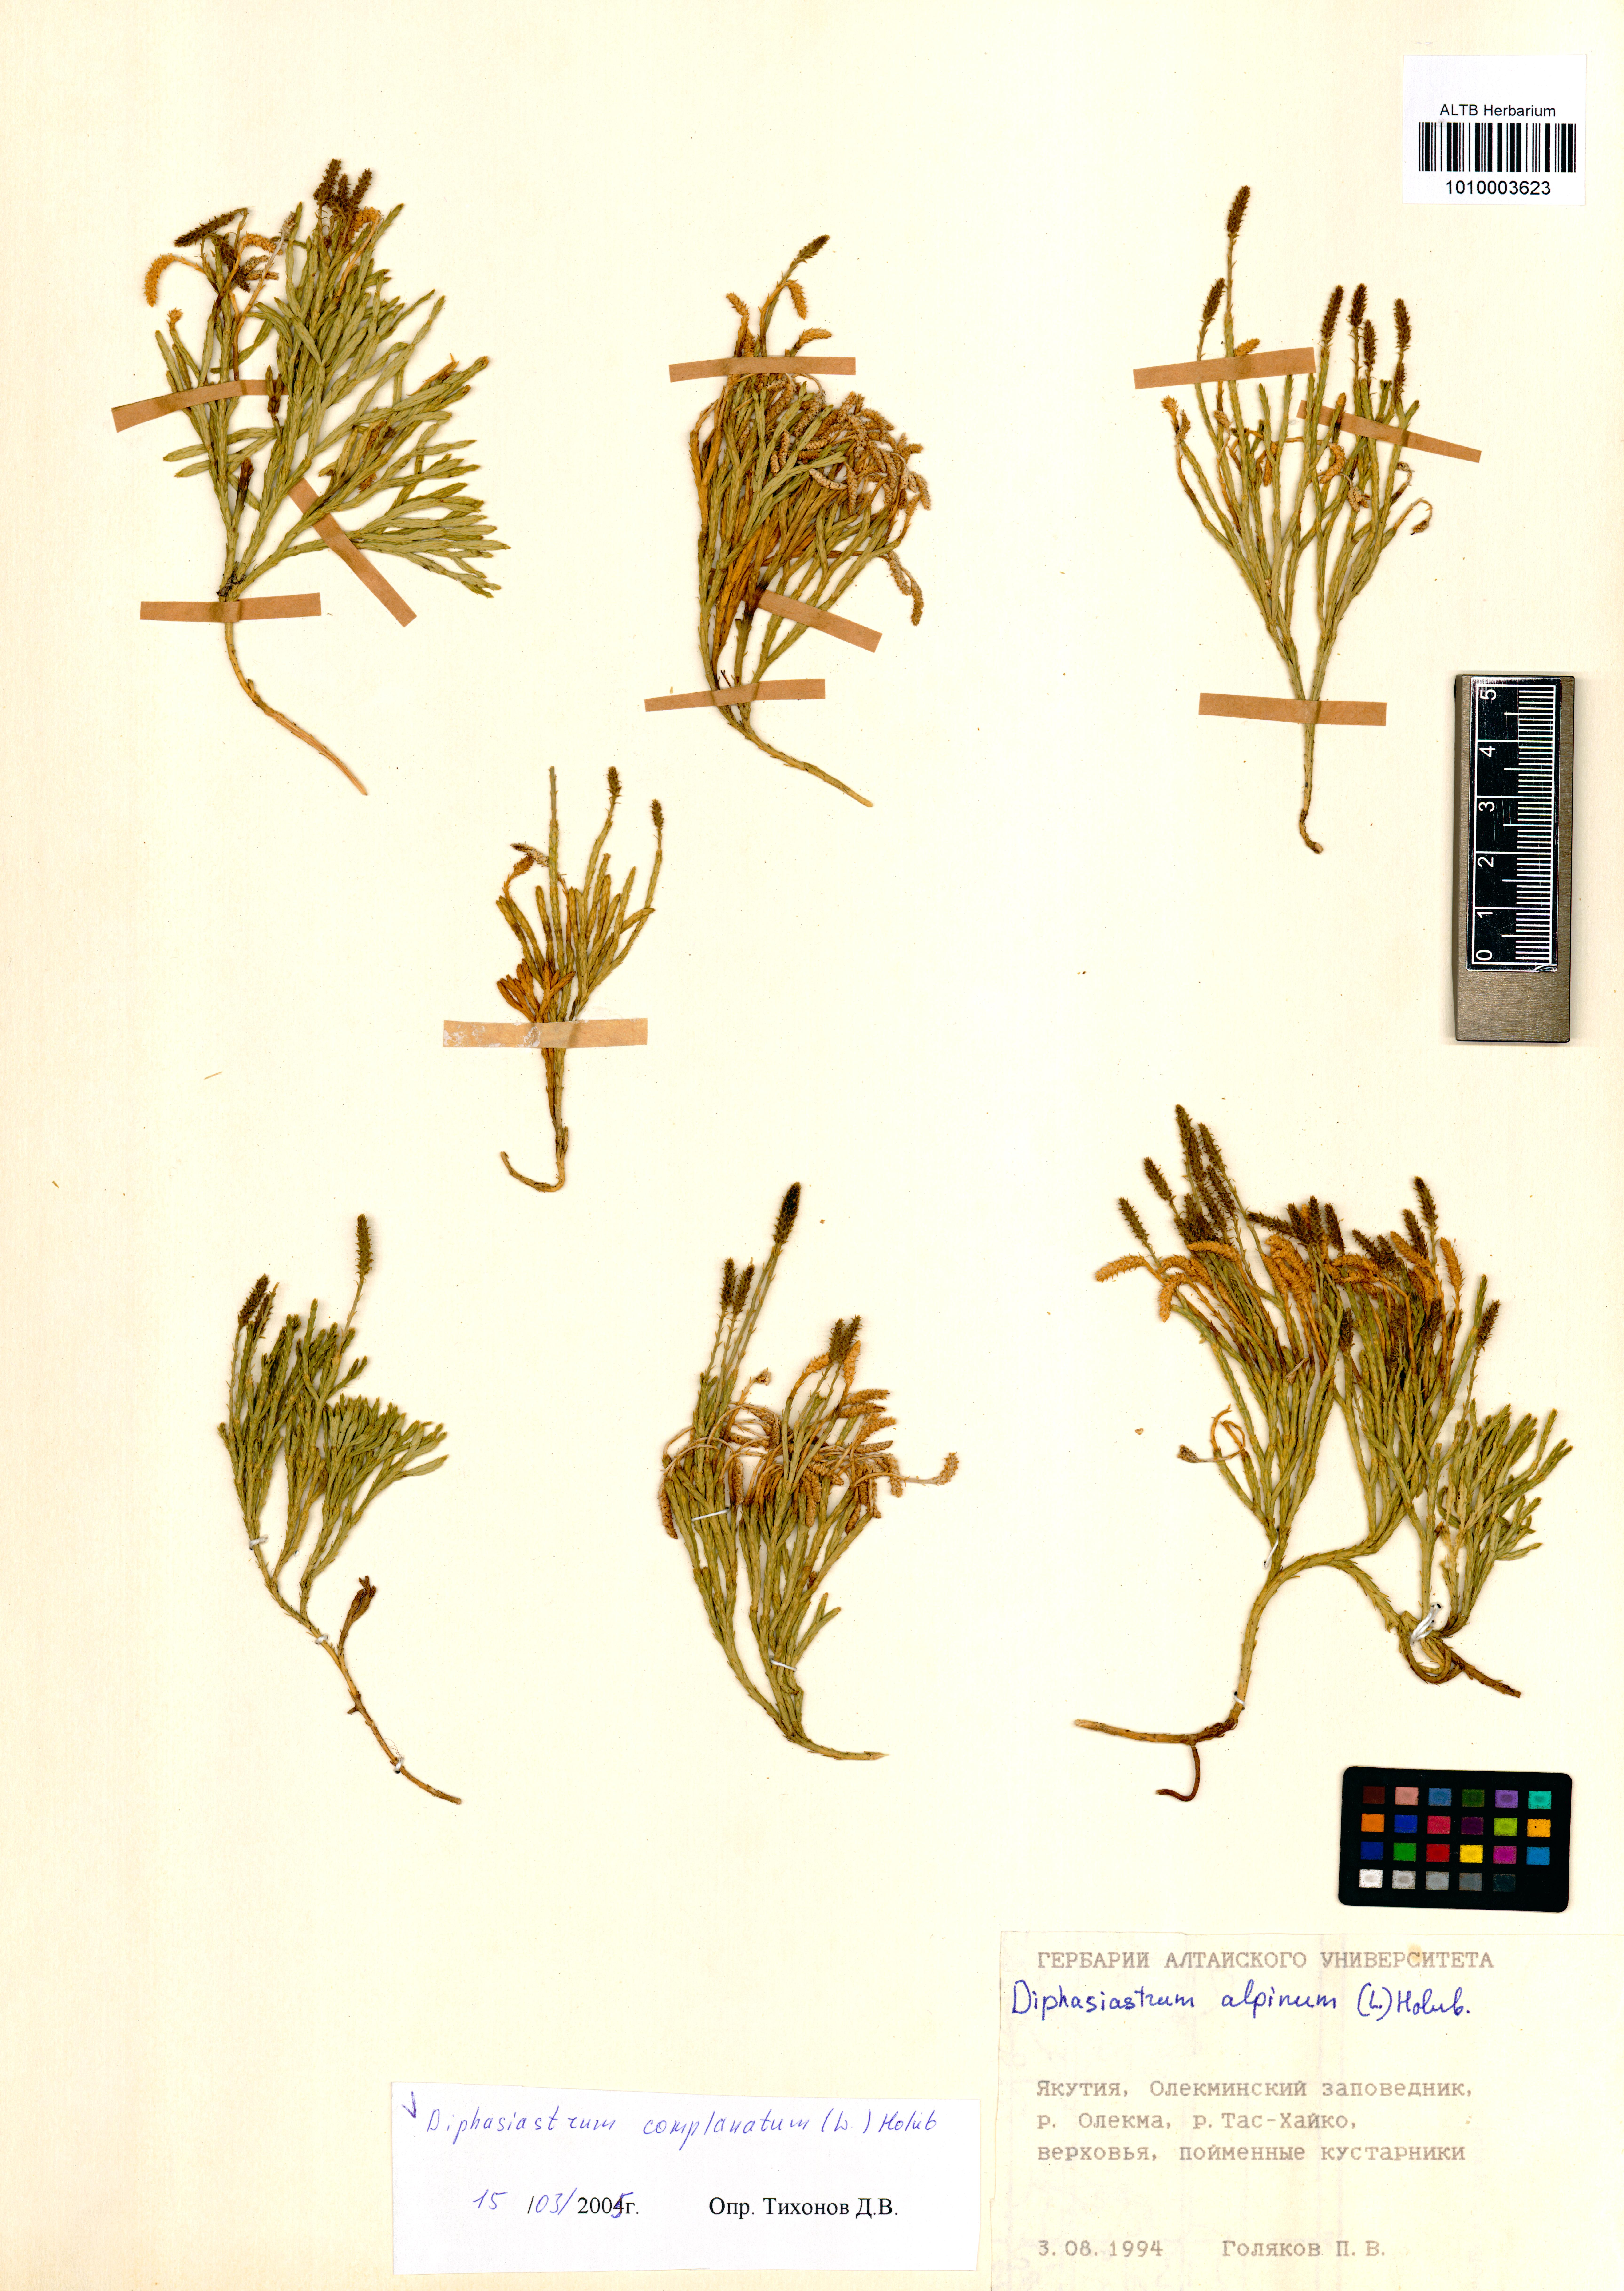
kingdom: Plantae
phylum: Tracheophyta
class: Lycopodiopsida
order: Lycopodiales
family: Lycopodiaceae
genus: Diphasiastrum
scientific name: Diphasiastrum complanatum
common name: Northern running-pine
